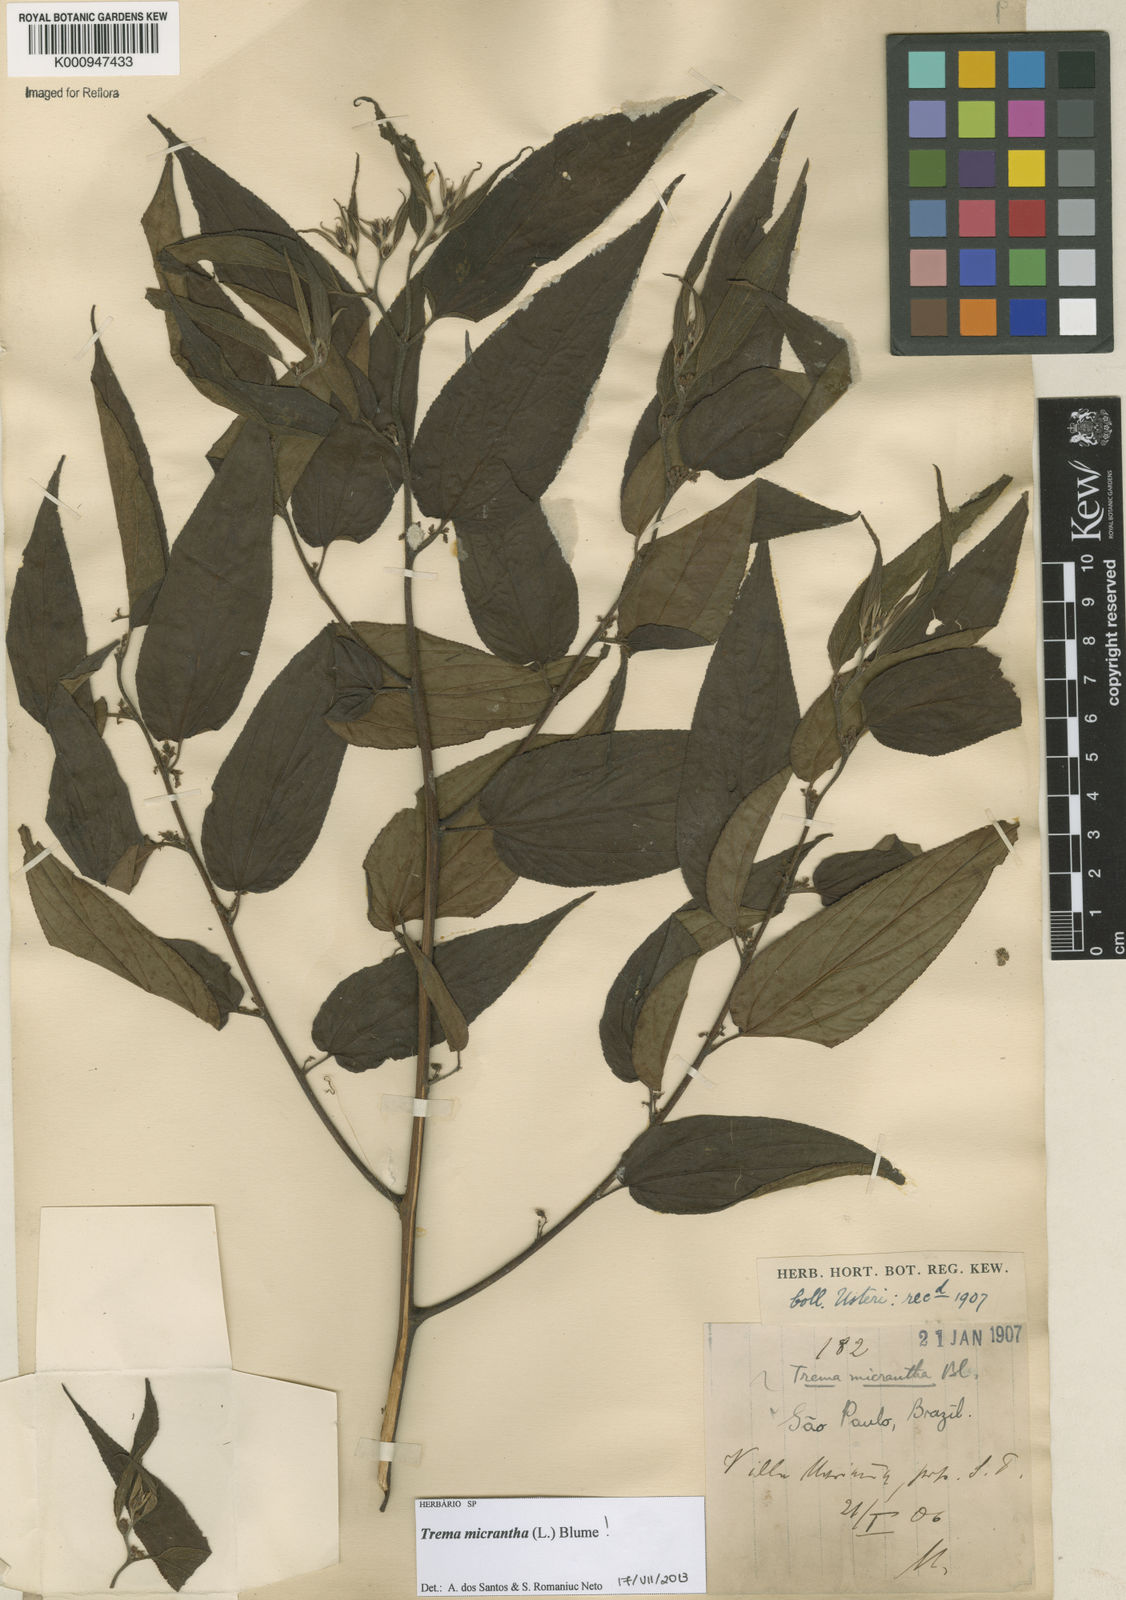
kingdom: Plantae
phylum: Tracheophyta
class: Magnoliopsida
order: Rosales
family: Cannabaceae
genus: Trema
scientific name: Trema micranthum
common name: Jamaican nettletree
